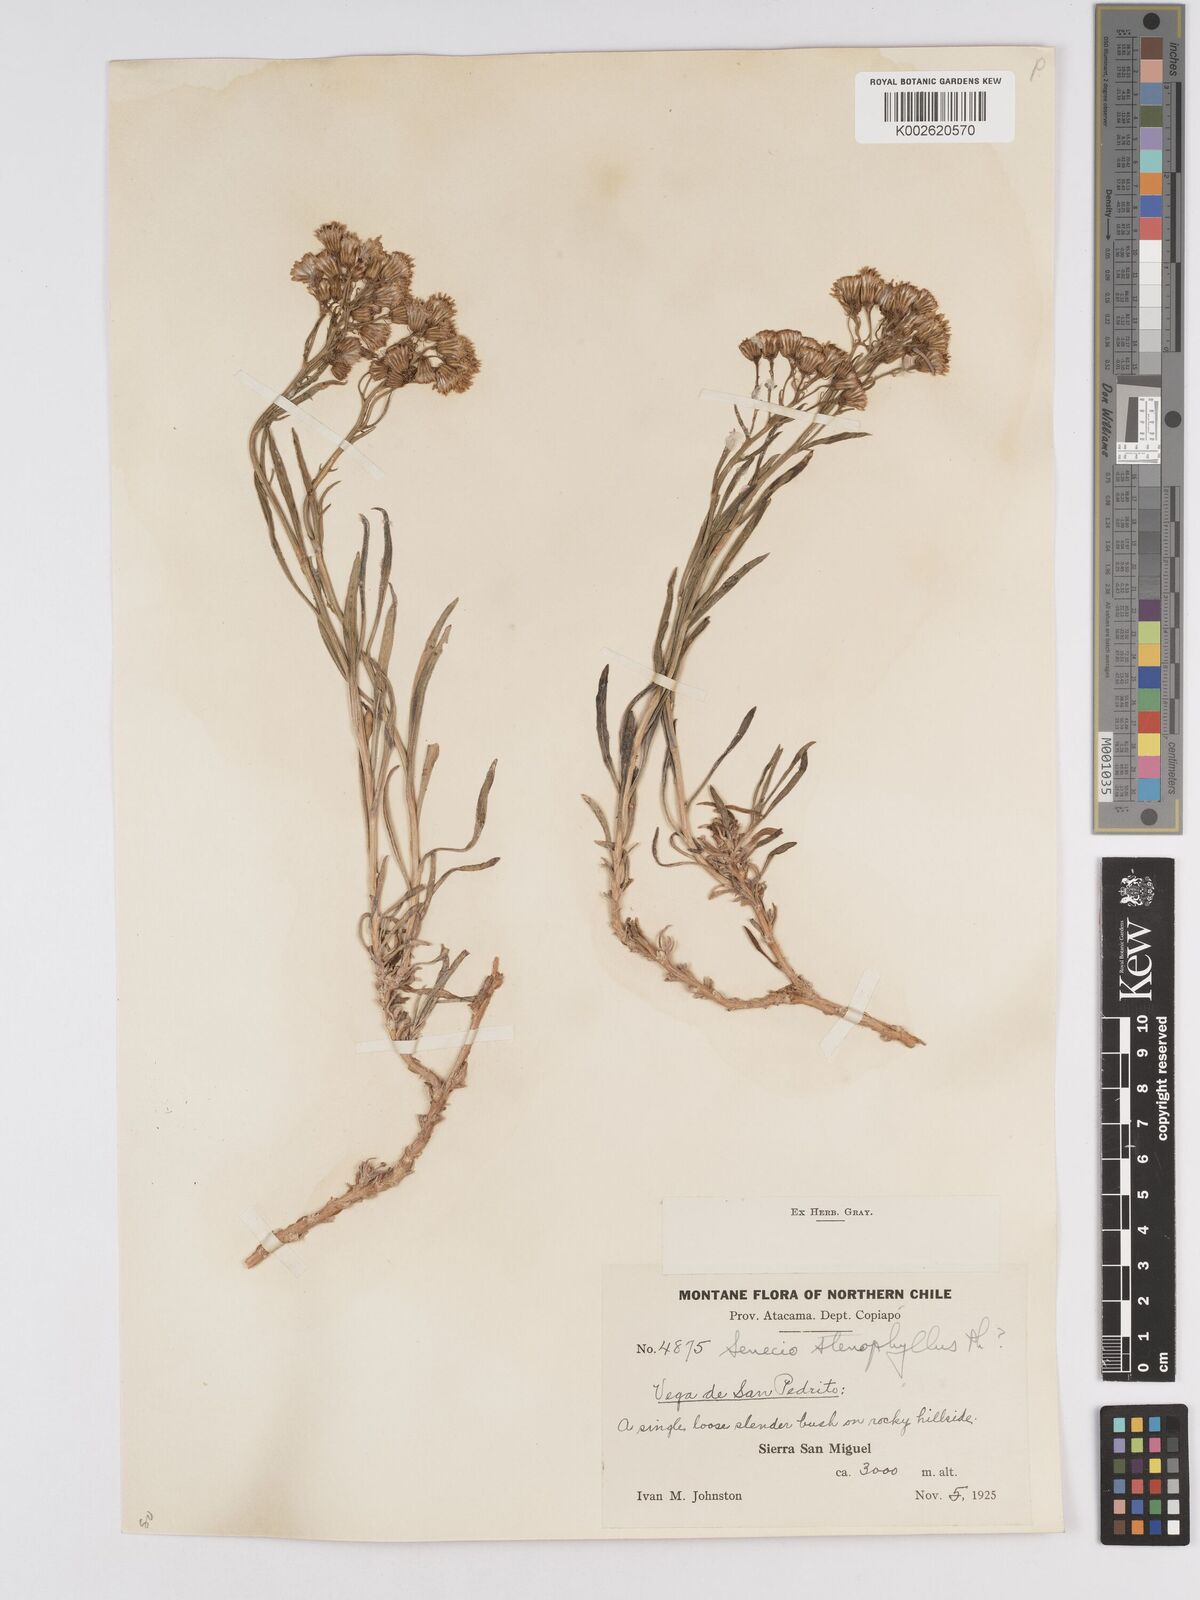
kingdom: Plantae
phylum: Tracheophyta
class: Magnoliopsida
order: Asterales
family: Asteraceae
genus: Senecio
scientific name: Senecio proteus
